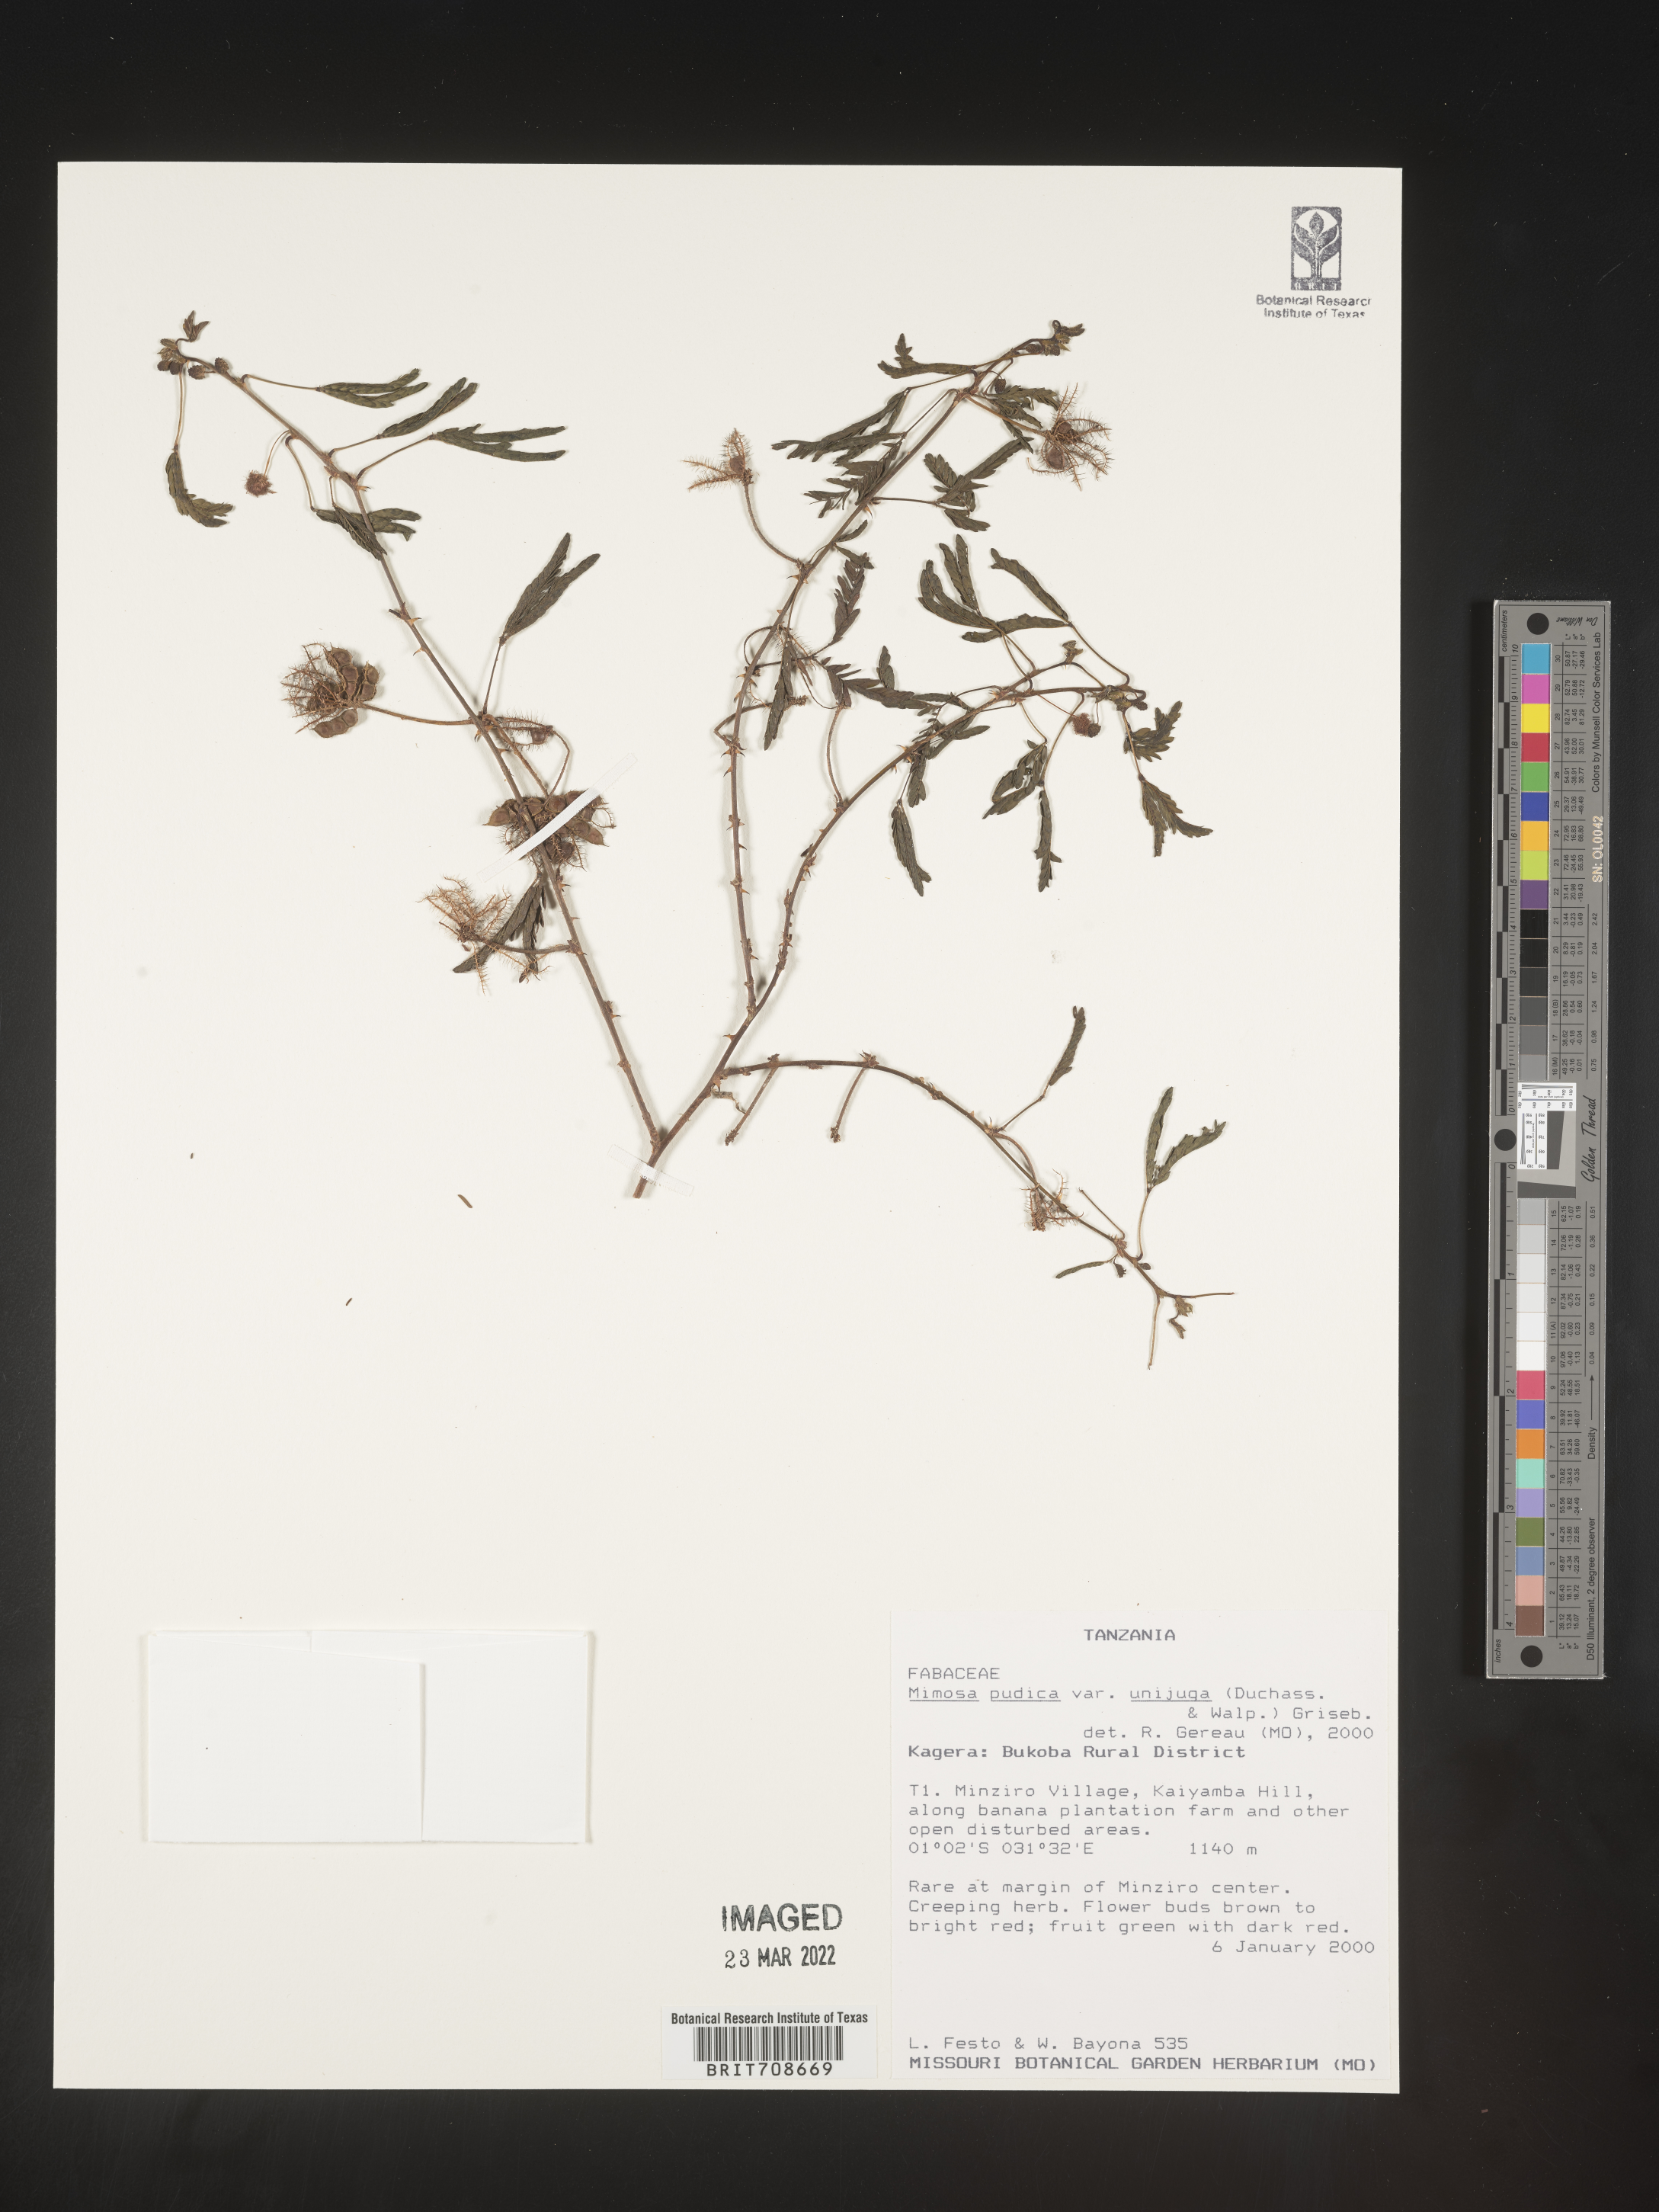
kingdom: Plantae
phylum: Tracheophyta
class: Magnoliopsida
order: Fabales
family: Fabaceae
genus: Mimosa
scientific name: Mimosa
